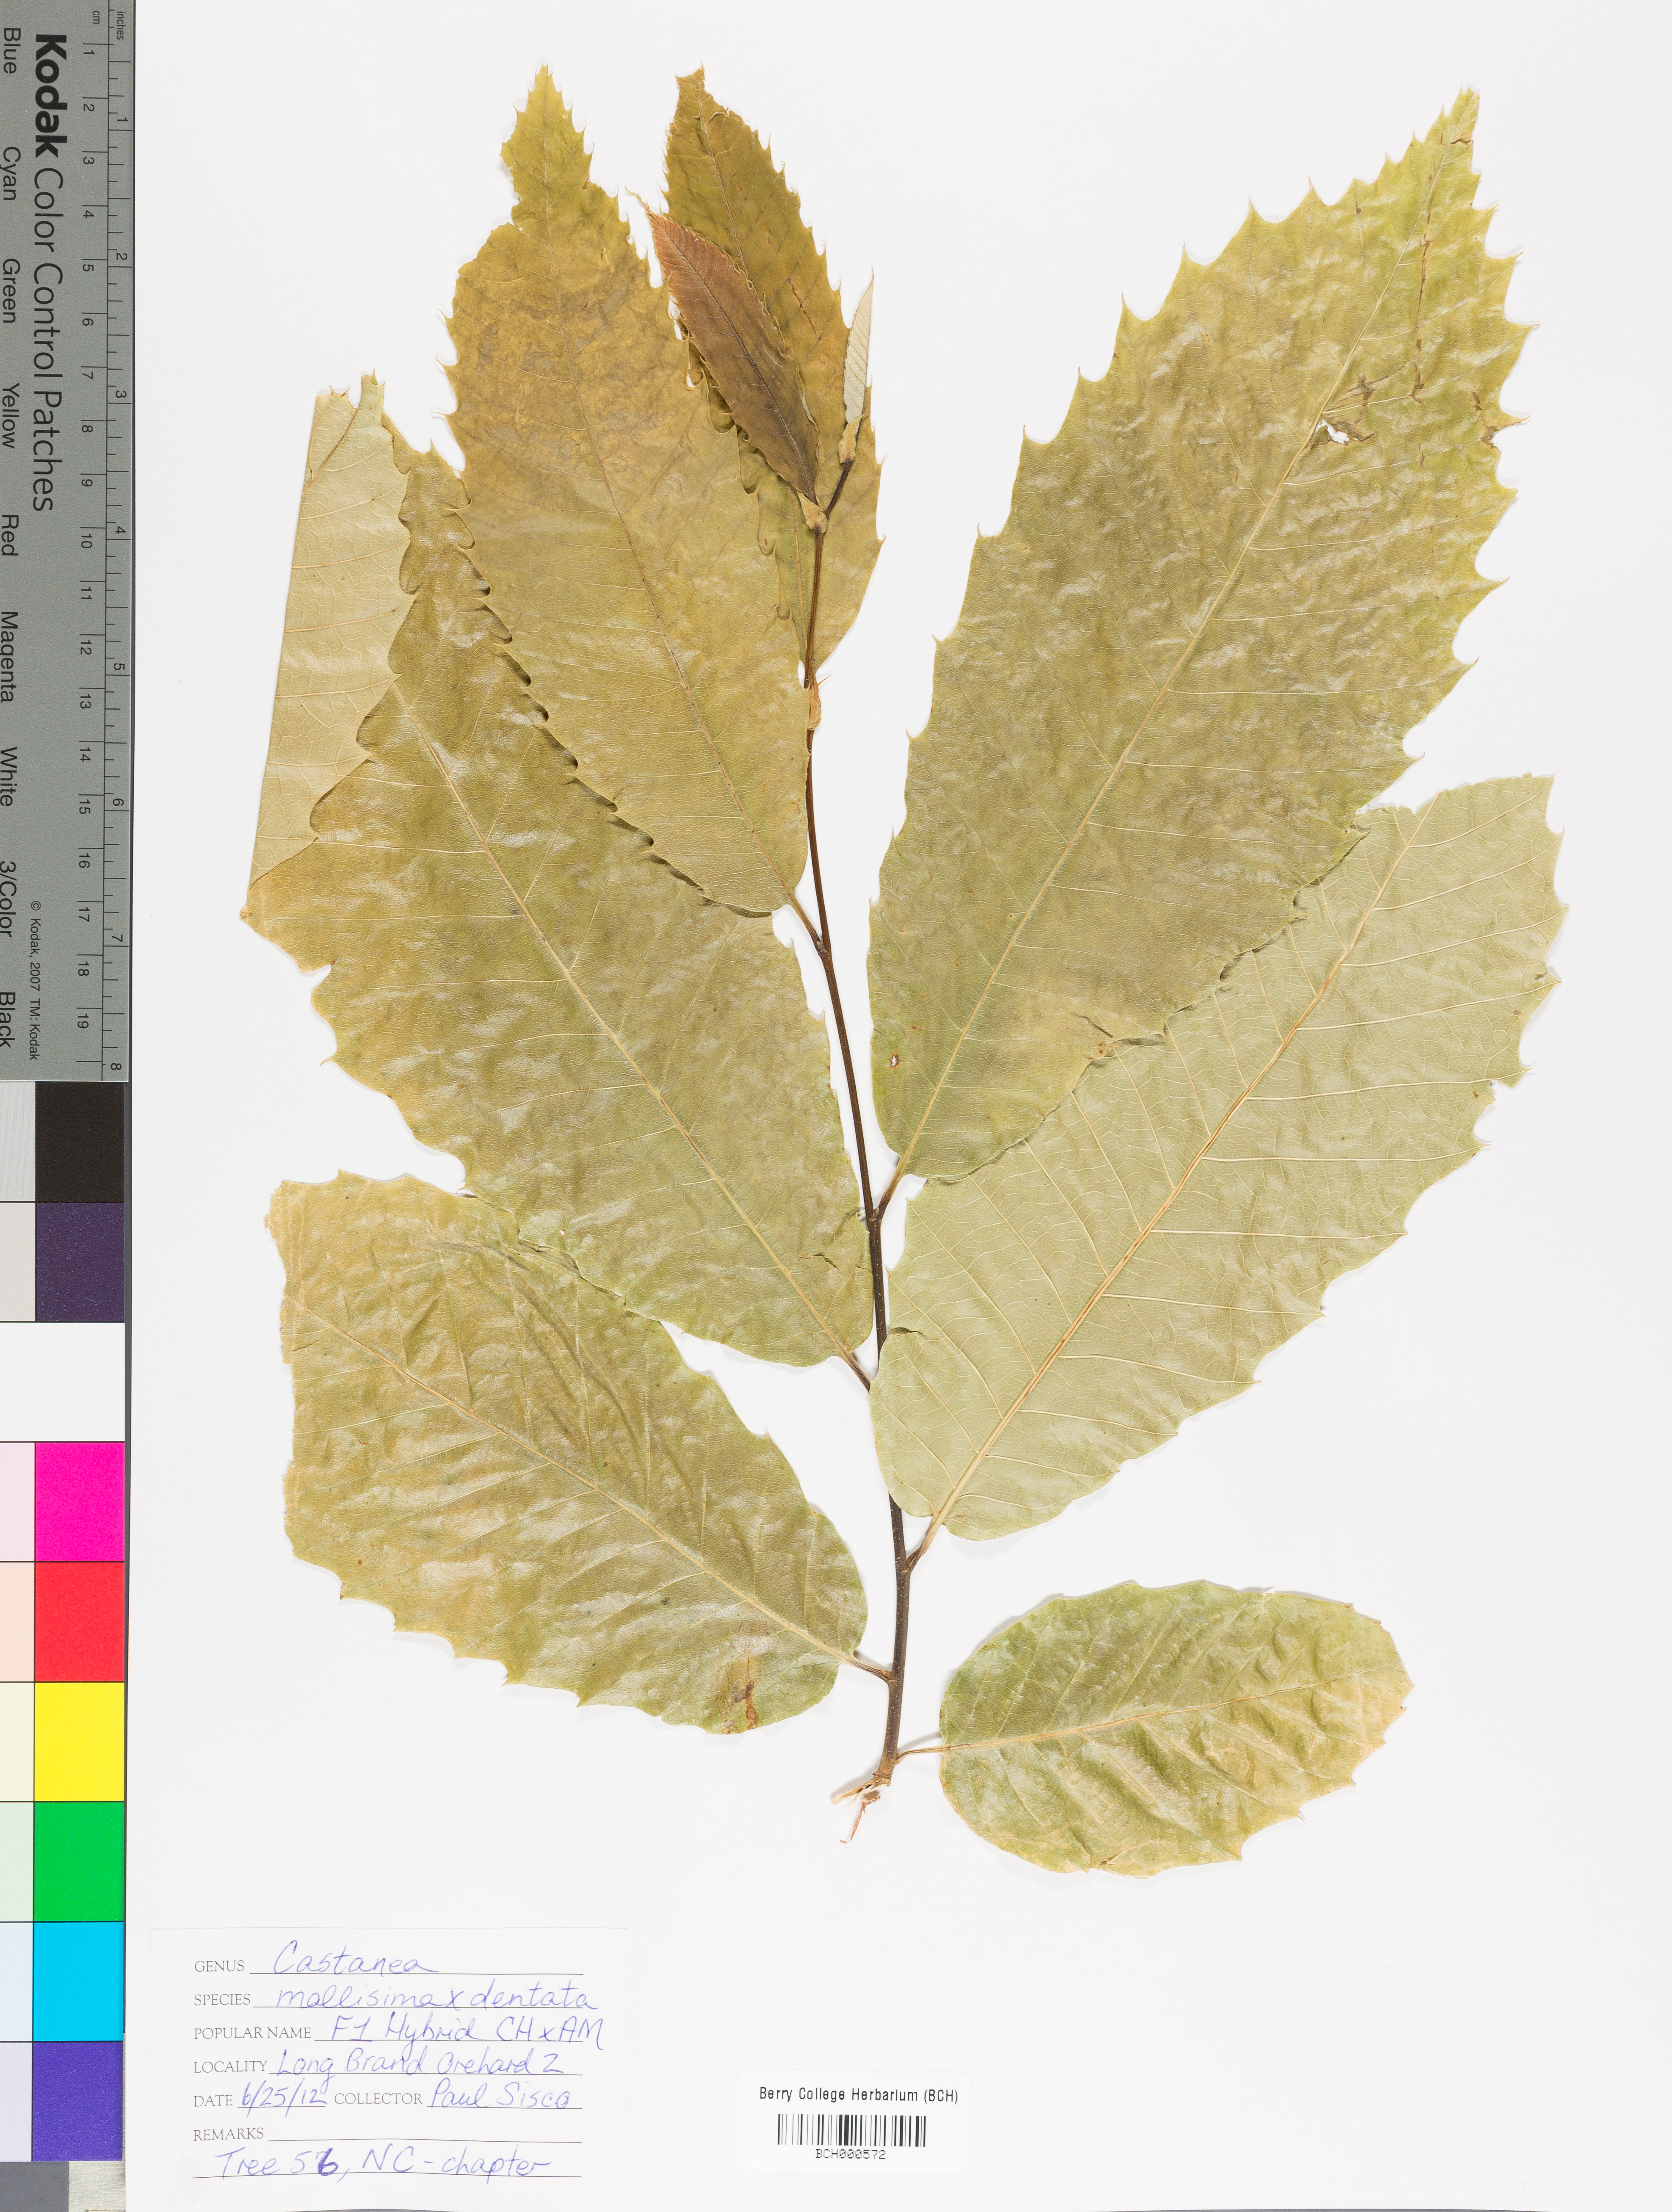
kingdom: Plantae
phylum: Tracheophyta
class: Magnoliopsida
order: Fagales
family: Fagaceae
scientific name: Fagaceae
